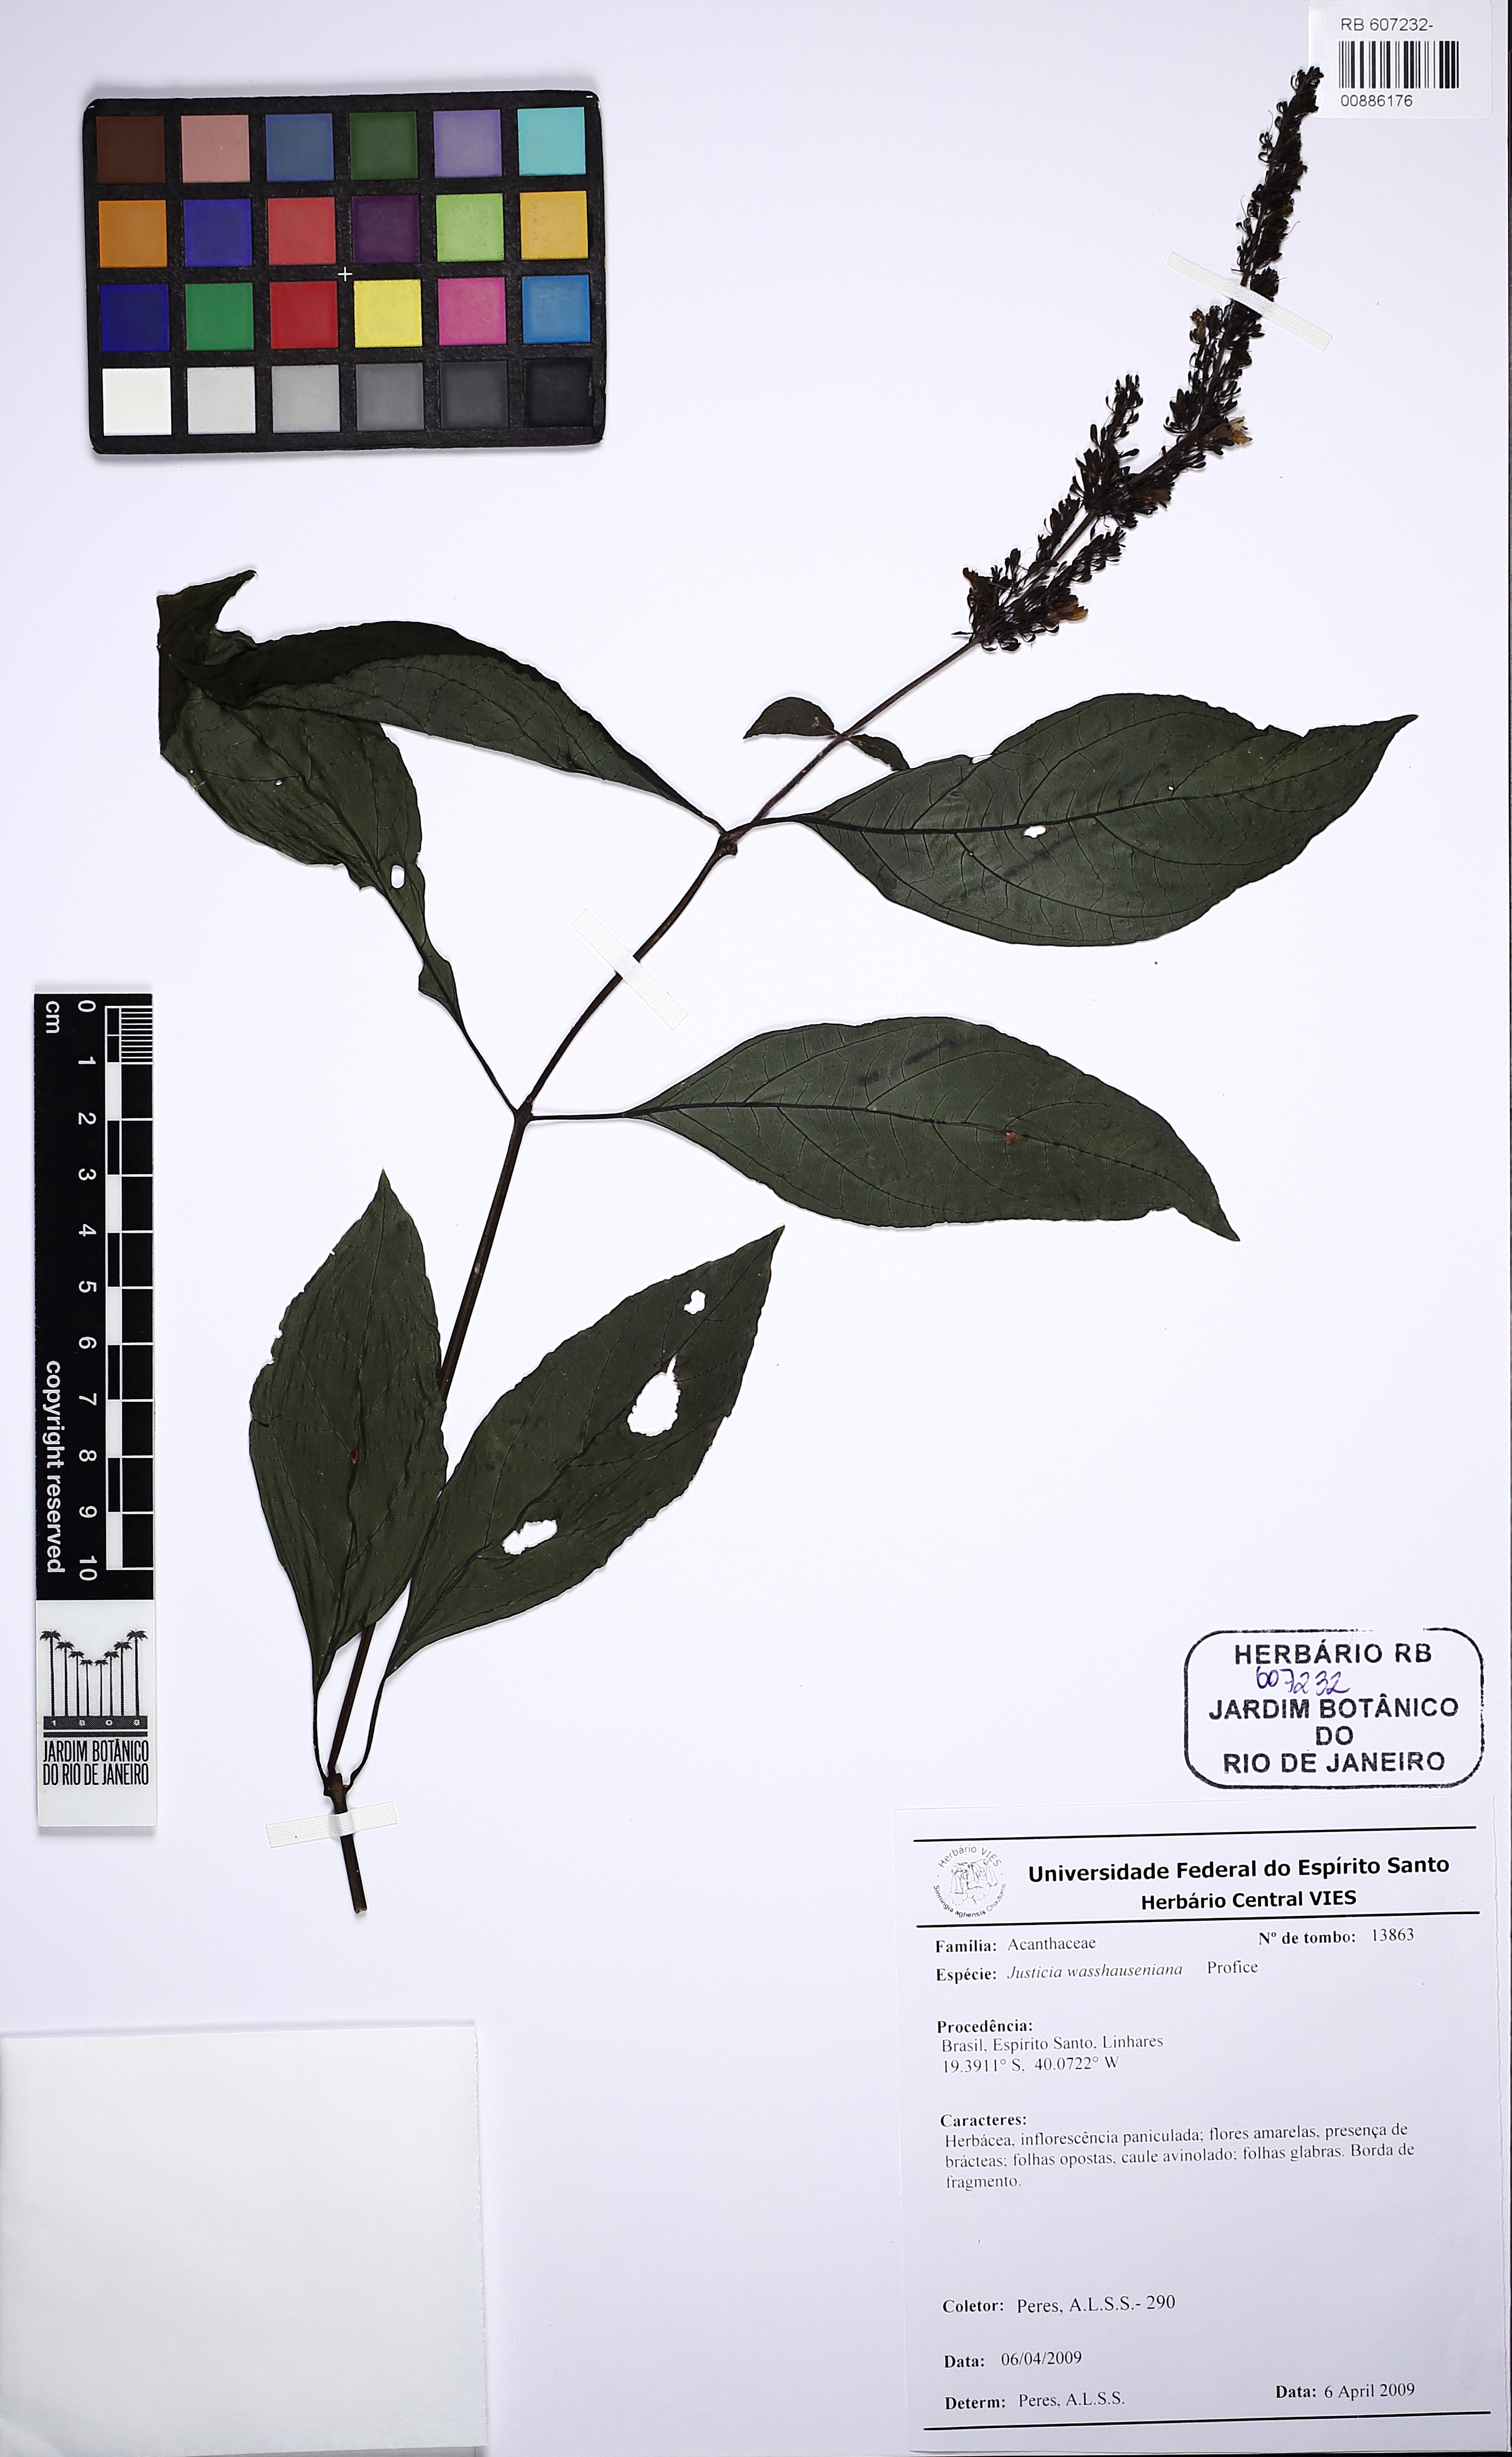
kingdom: Plantae
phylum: Tracheophyta
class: Magnoliopsida
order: Lamiales
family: Acanthaceae
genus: Justicia
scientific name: Justicia
